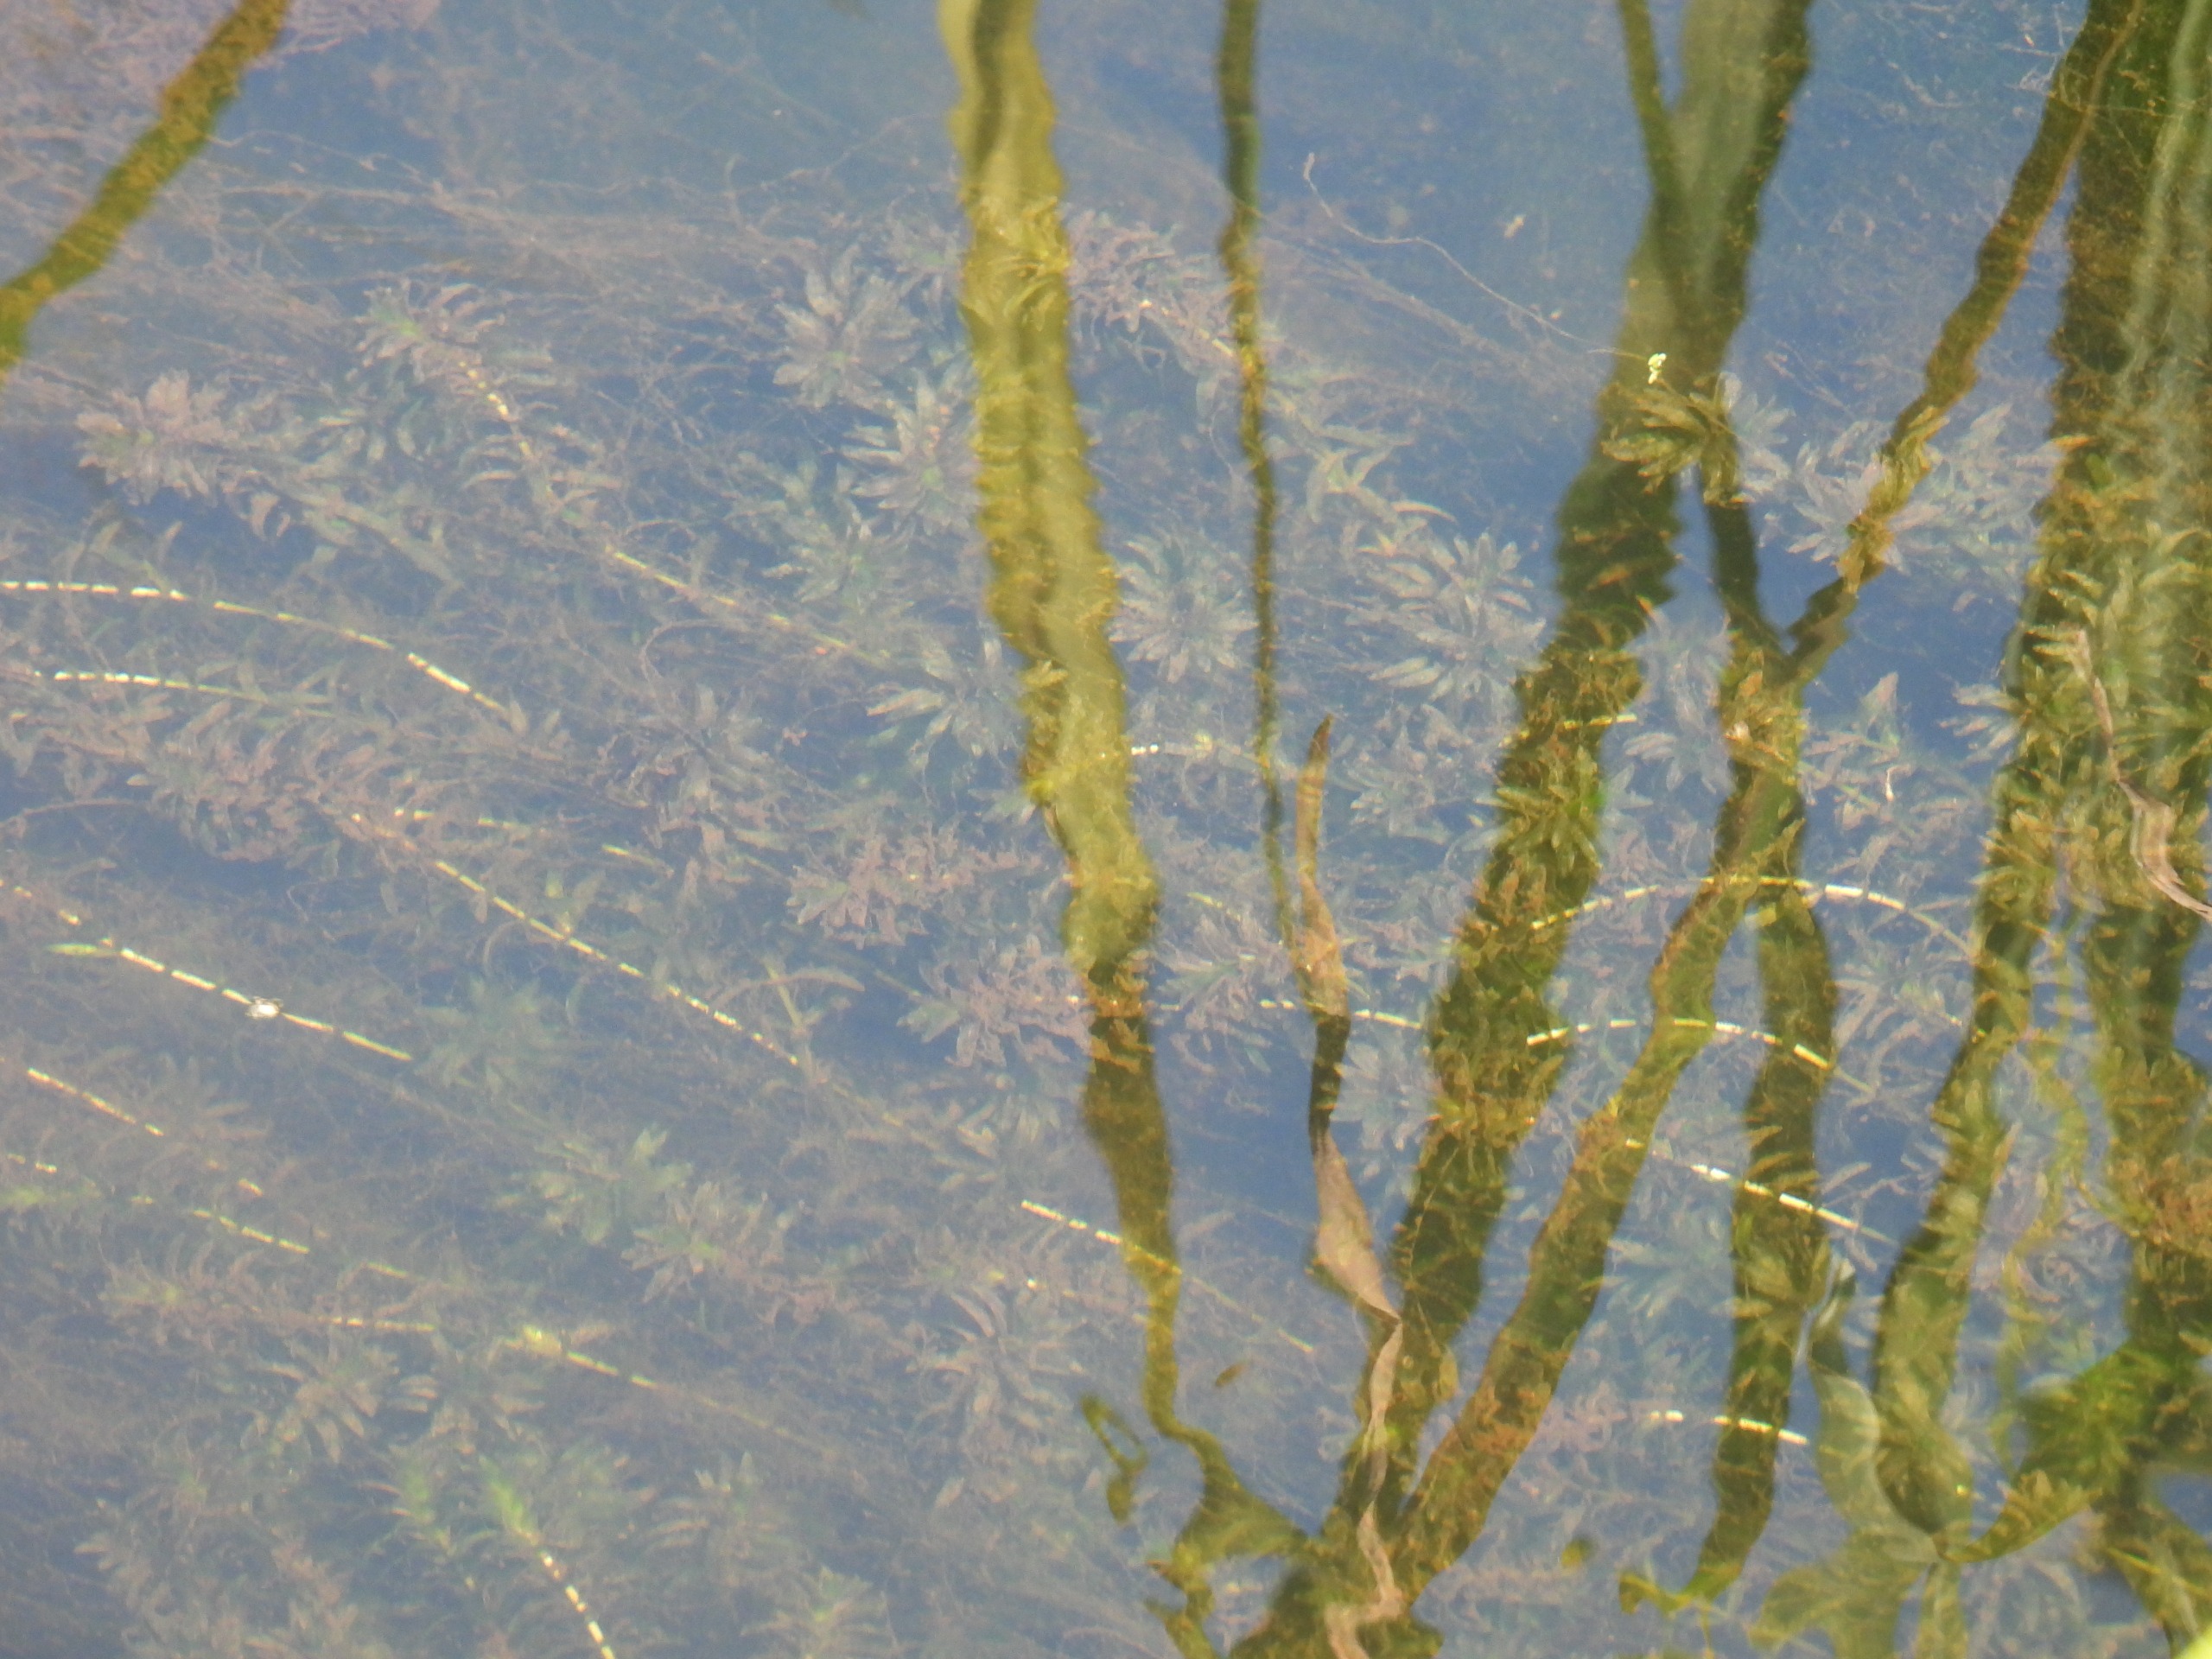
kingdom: Plantae
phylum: Tracheophyta
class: Liliopsida
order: Alismatales
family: Hydrocharitaceae
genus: Elodea
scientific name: Elodea canadensis
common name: Vandpest
